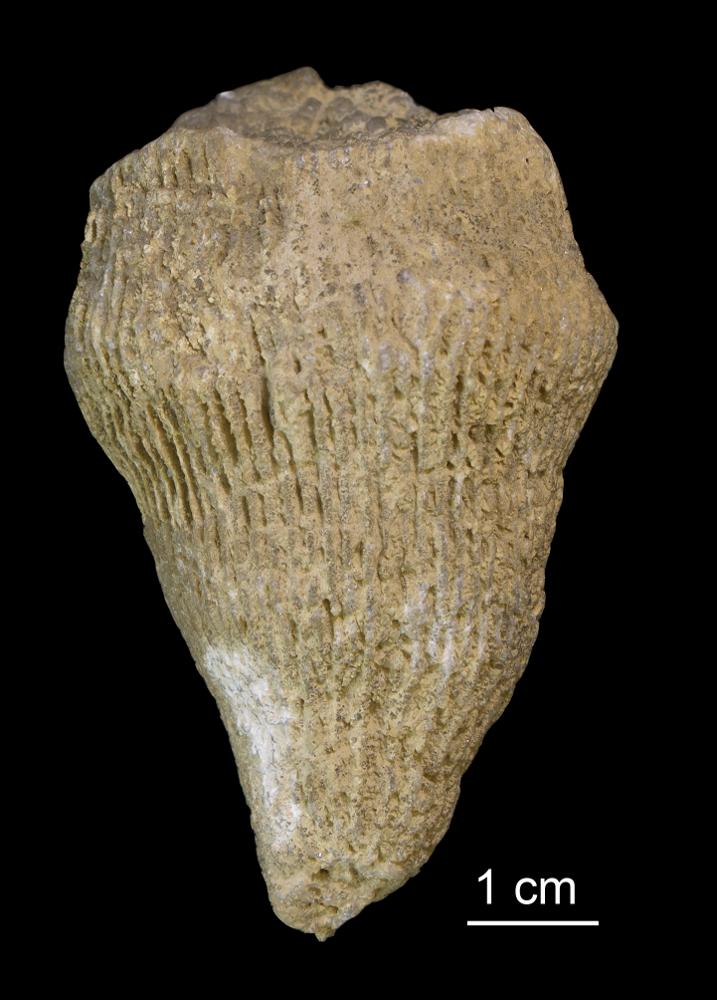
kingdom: Animalia
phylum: Cnidaria
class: Anthozoa
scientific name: Anthozoa
